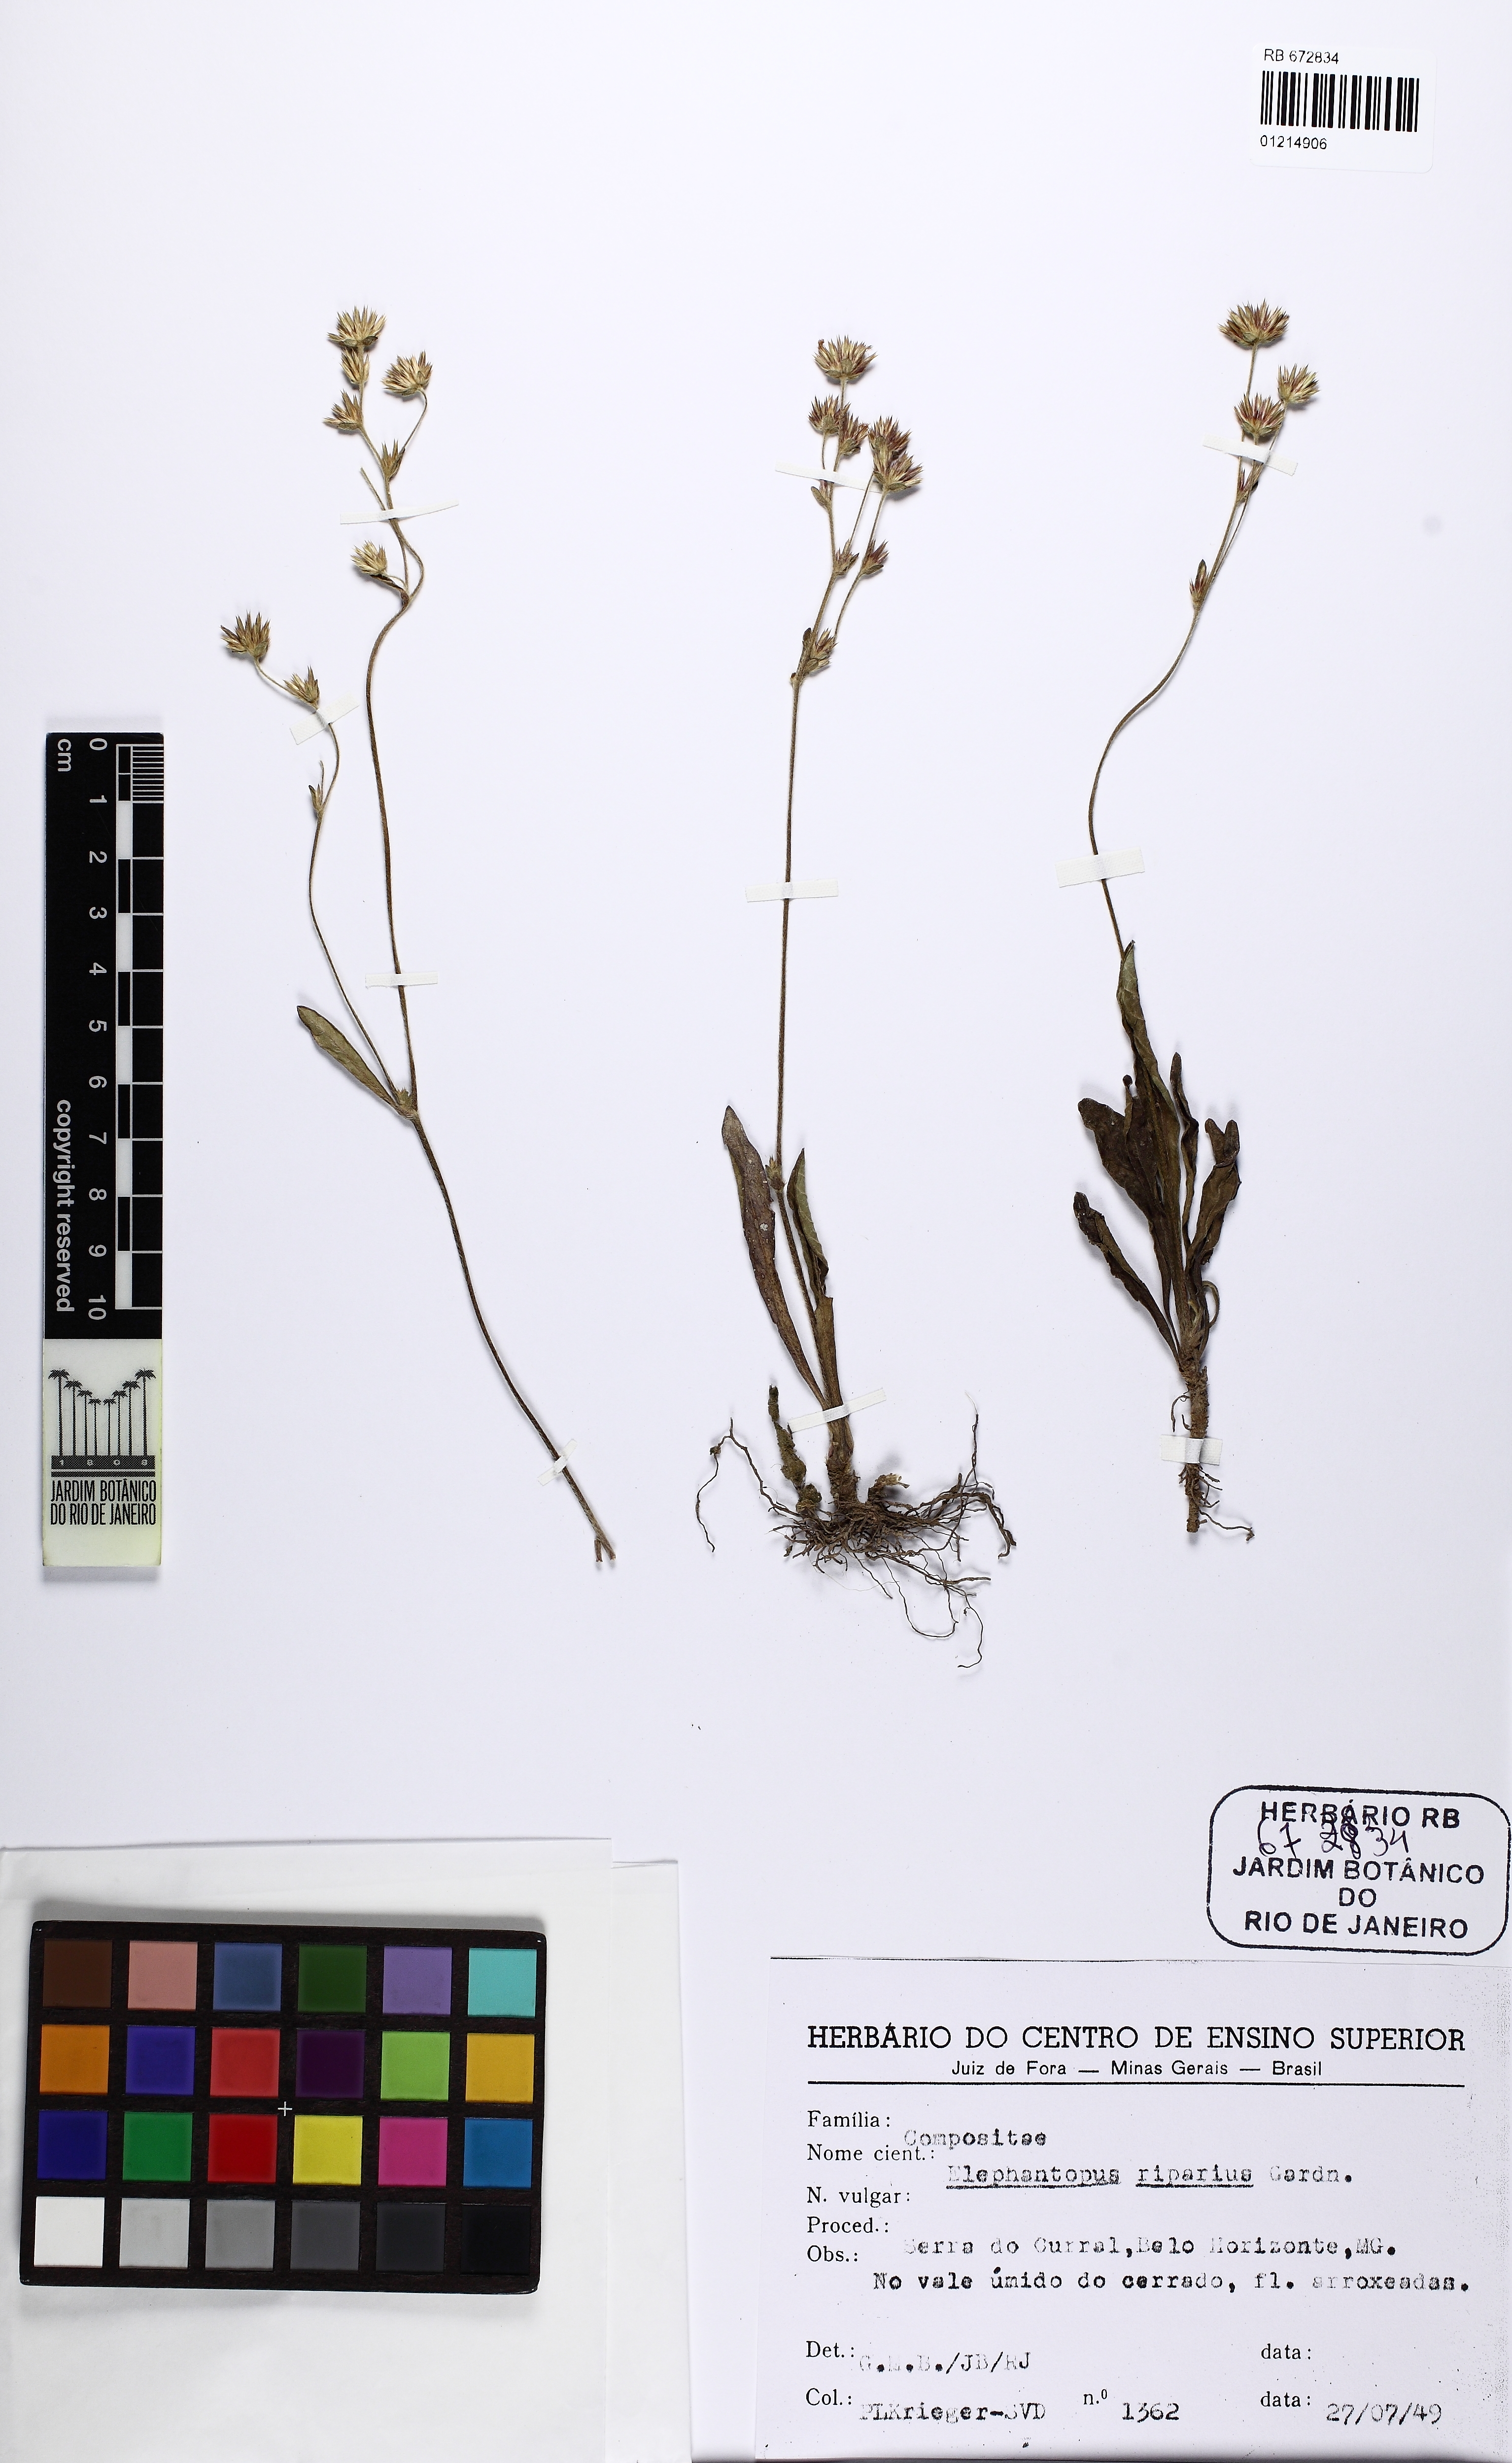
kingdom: Plantae
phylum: Tracheophyta
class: Magnoliopsida
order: Asterales
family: Asteraceae
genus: Elephantopus
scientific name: Elephantopus riparius
